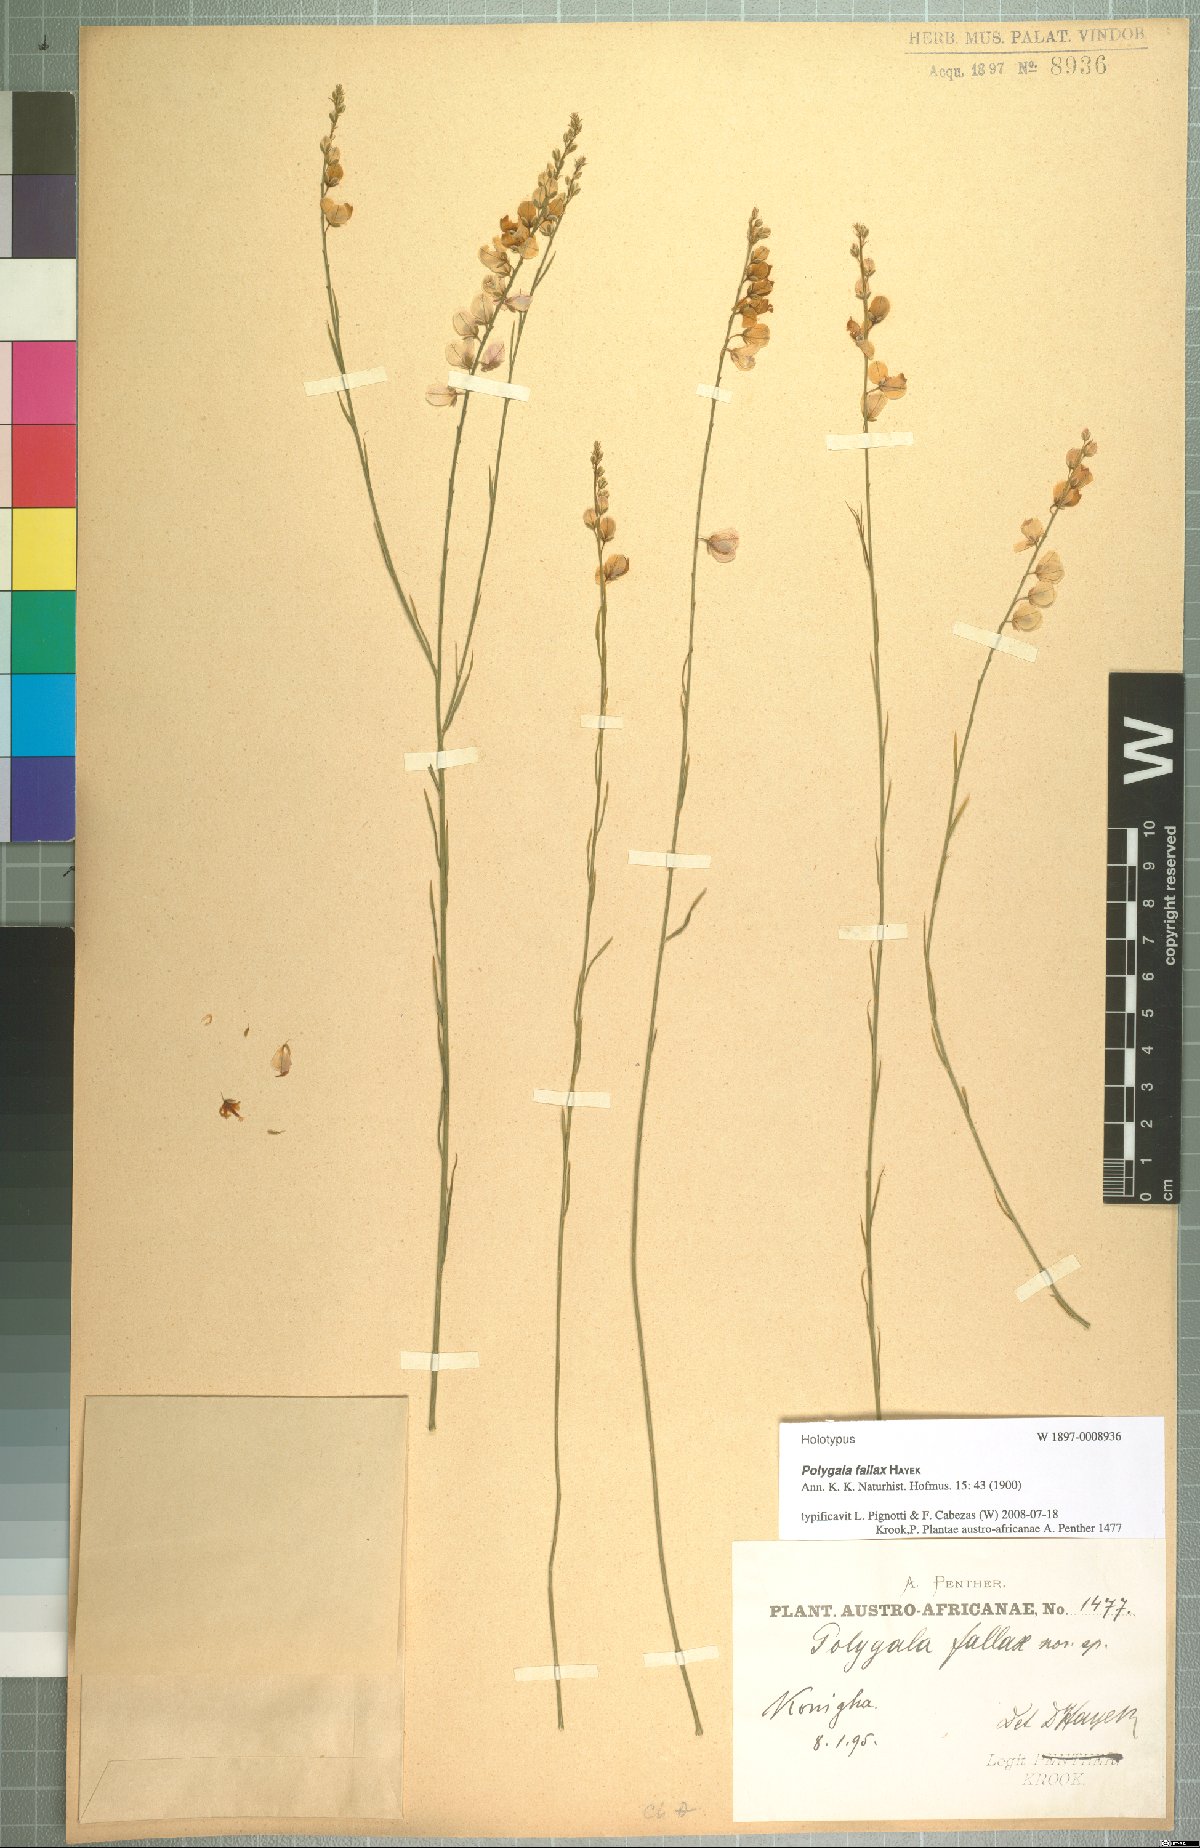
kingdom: Plantae
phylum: Tracheophyta
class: Magnoliopsida
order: Fabales
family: Polygalaceae
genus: Polygala
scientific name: Polygala houtboshiana
